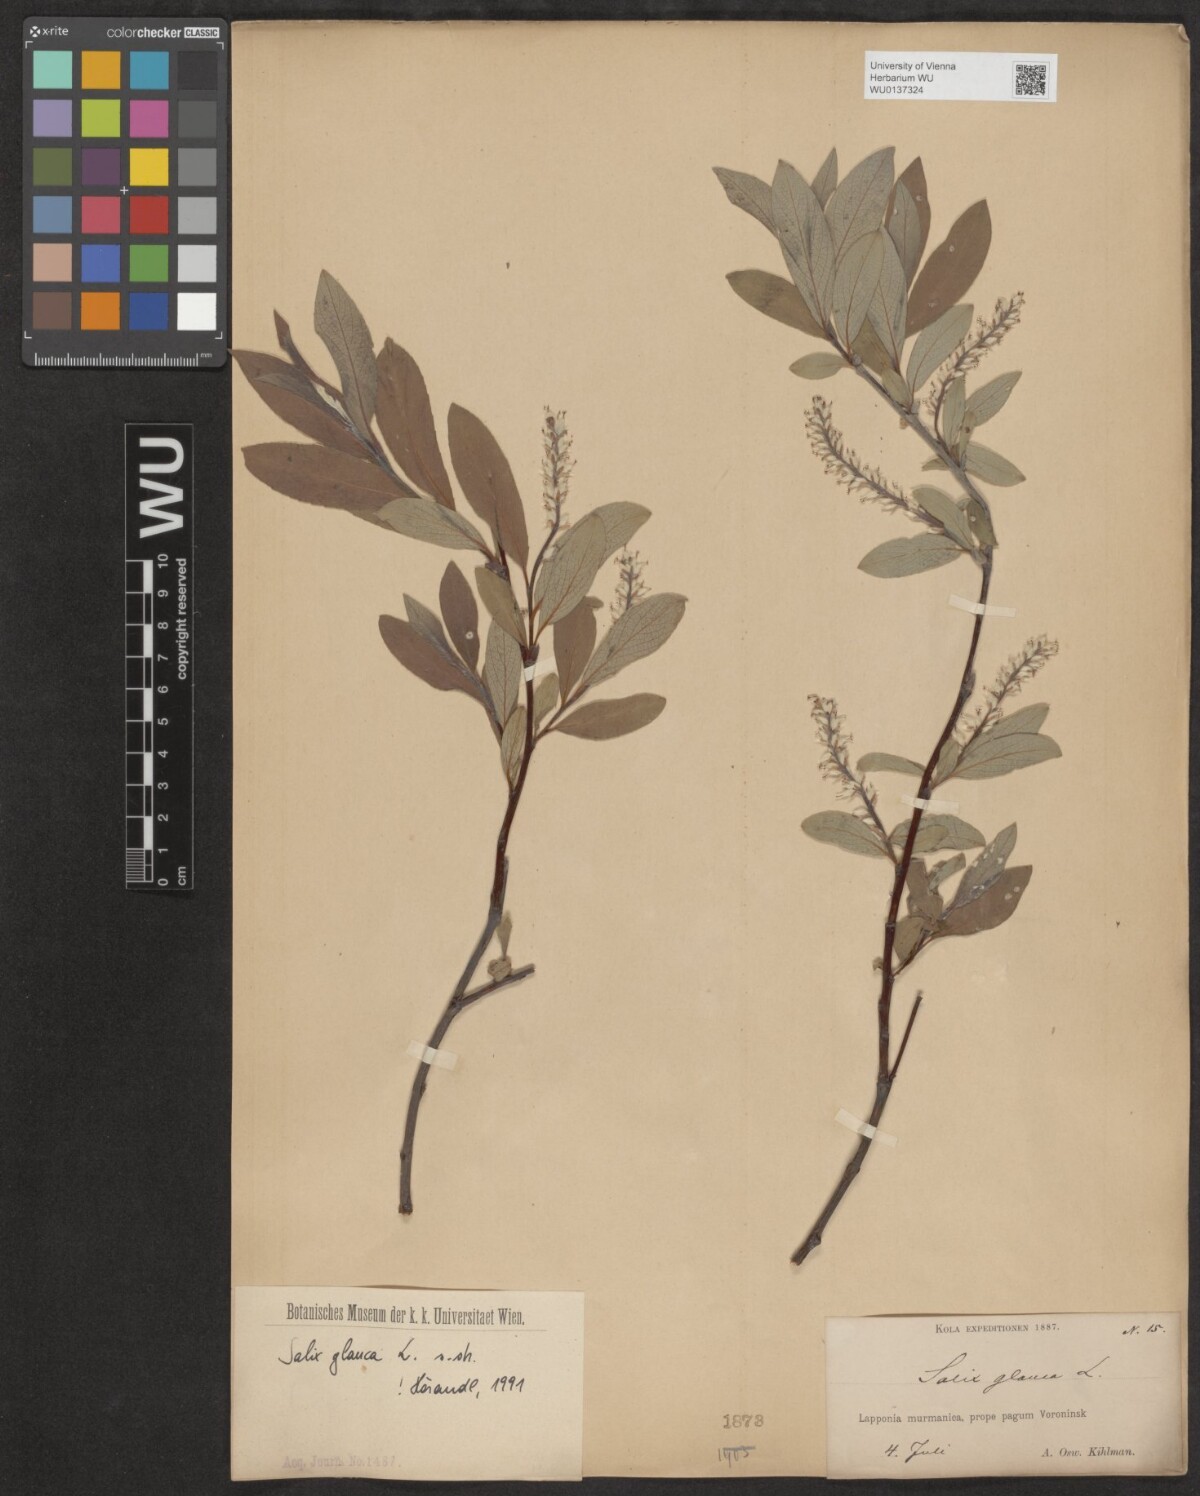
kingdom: Plantae
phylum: Tracheophyta
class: Magnoliopsida
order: Malpighiales
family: Salicaceae
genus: Salix
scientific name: Salix glauca
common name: Glaucous willow
